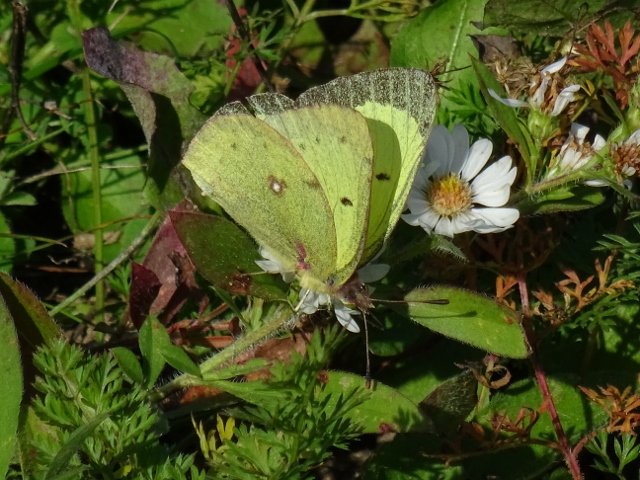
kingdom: Animalia
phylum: Arthropoda
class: Insecta
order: Lepidoptera
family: Pieridae
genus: Colias
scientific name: Colias philodice
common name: Clouded Sulphur
